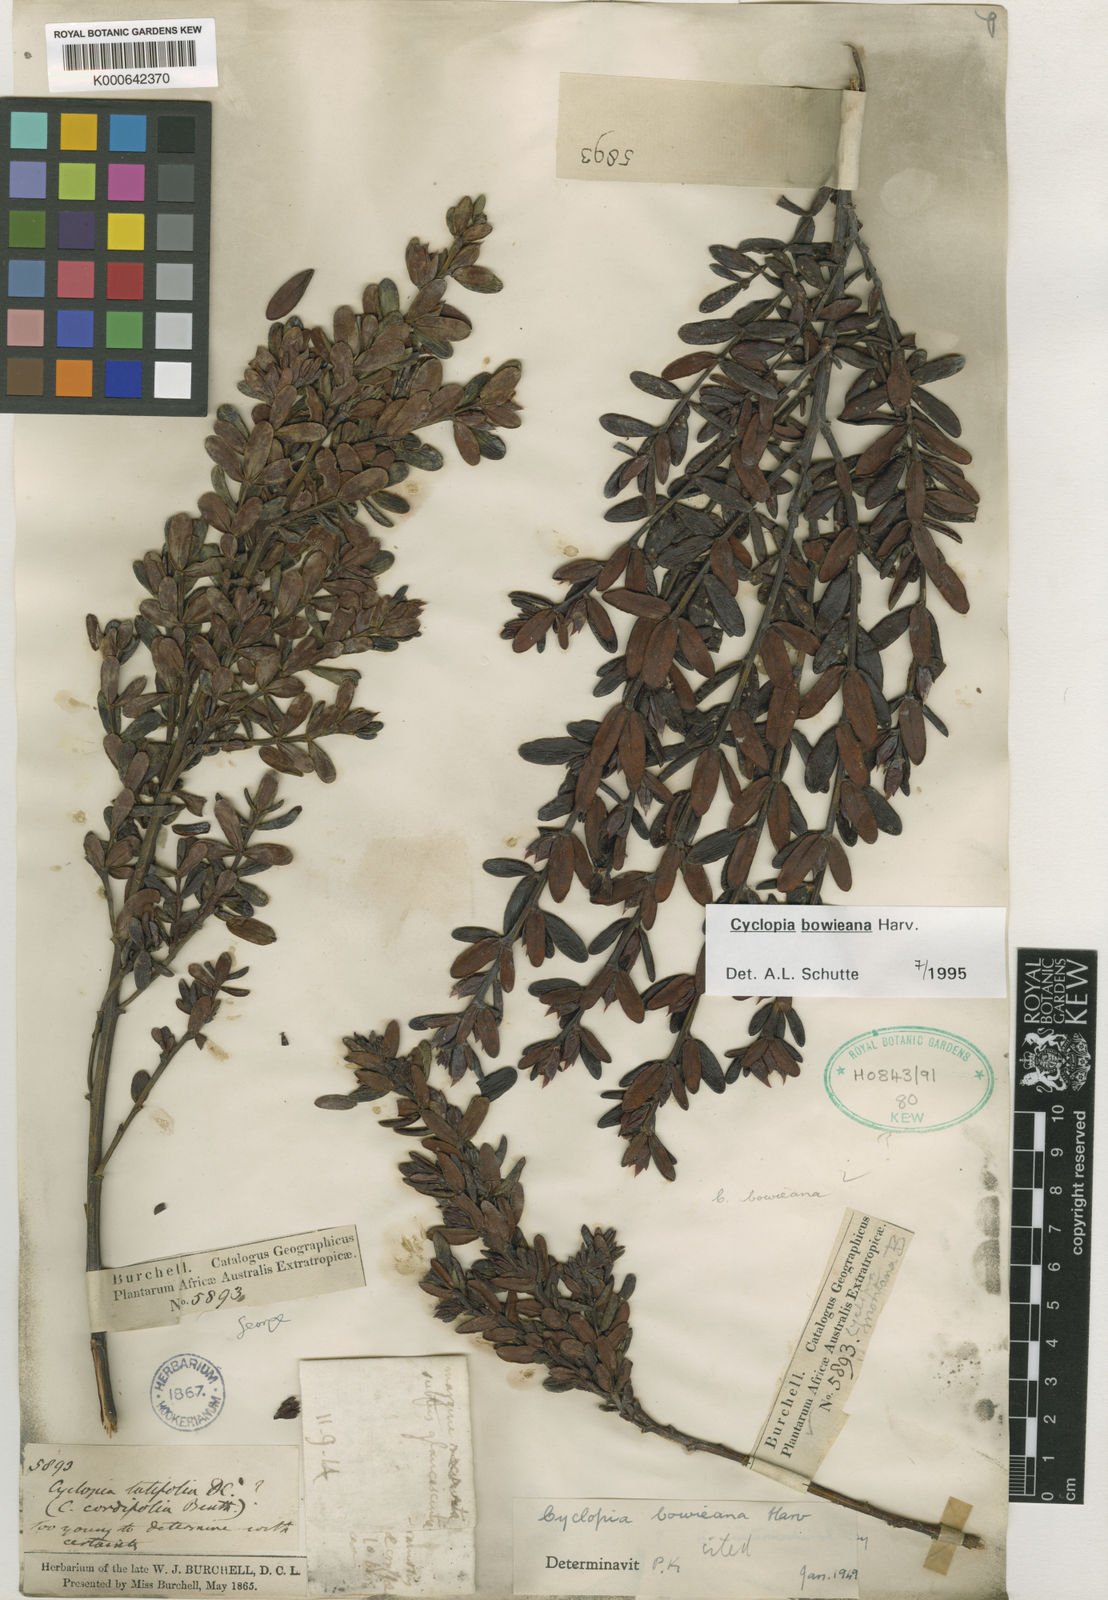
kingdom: Plantae
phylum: Tracheophyta
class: Magnoliopsida
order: Fabales
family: Fabaceae
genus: Cyclopia
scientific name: Cyclopia bowieana
